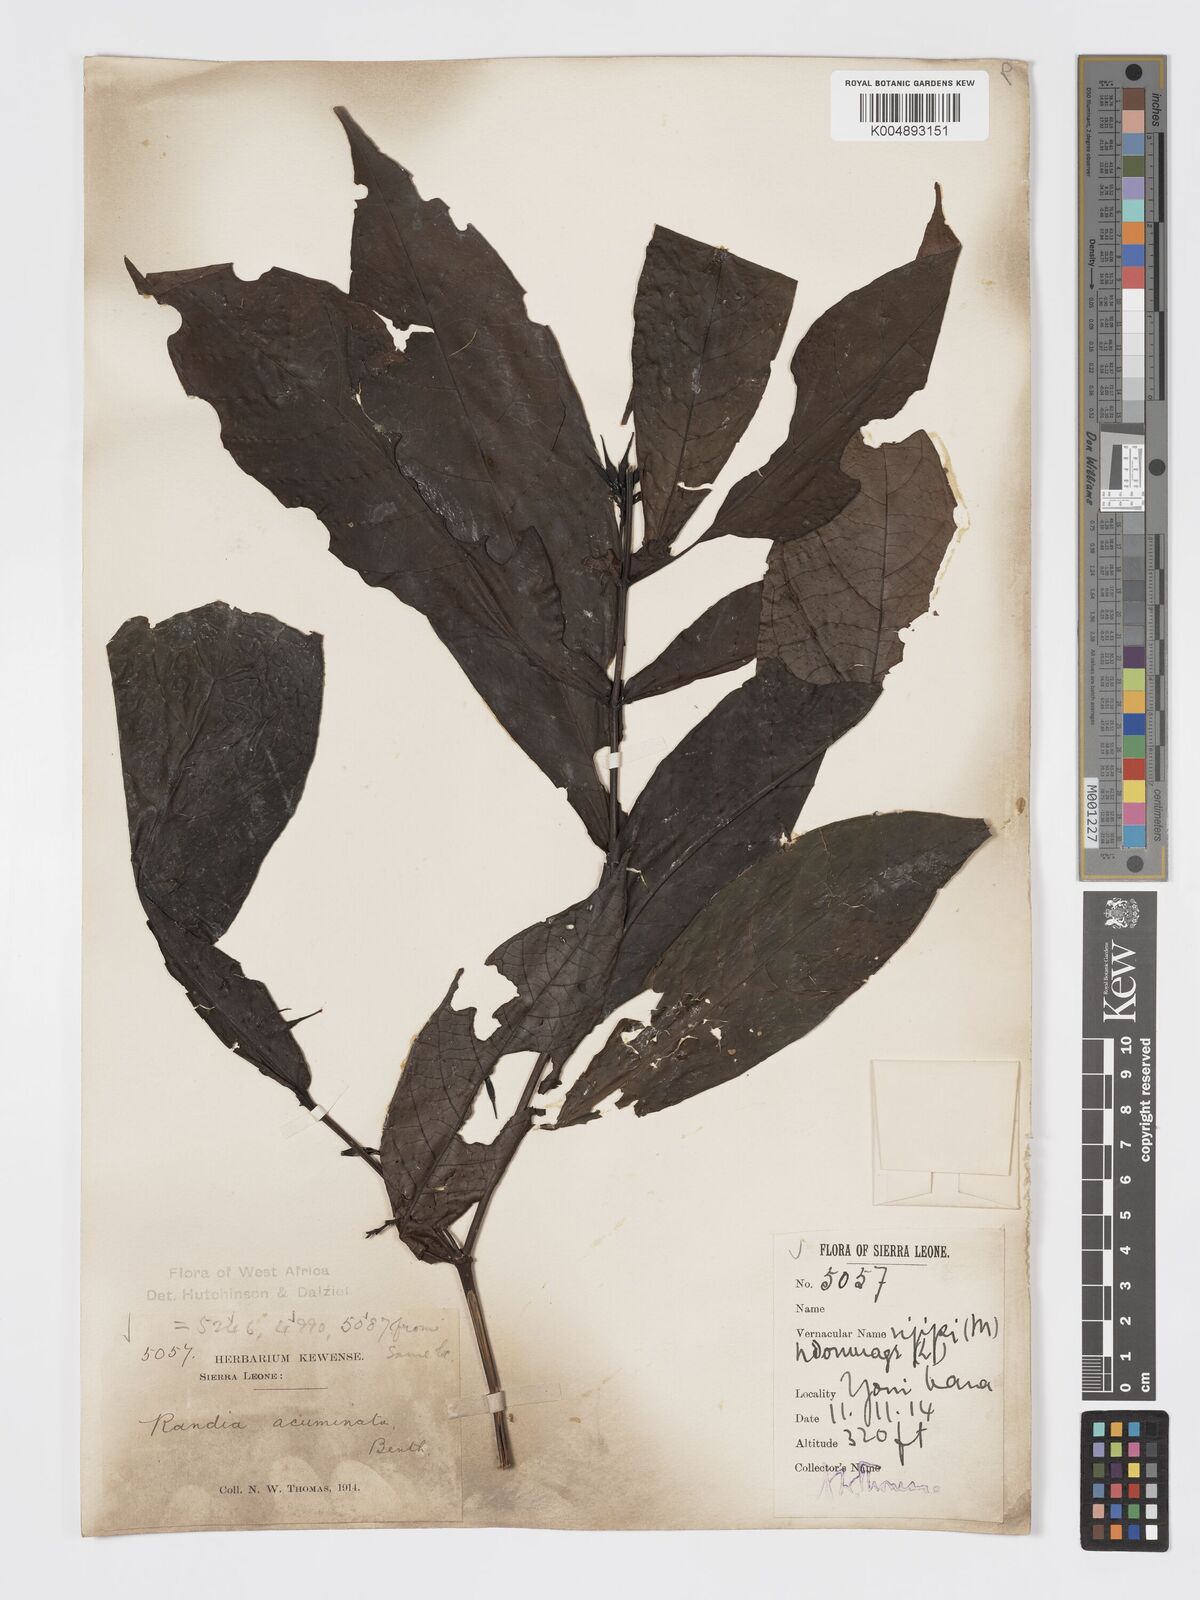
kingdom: Plantae
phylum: Tracheophyta
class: Magnoliopsida
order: Gentianales
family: Rubiaceae
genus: Massularia
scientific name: Massularia acuminata
